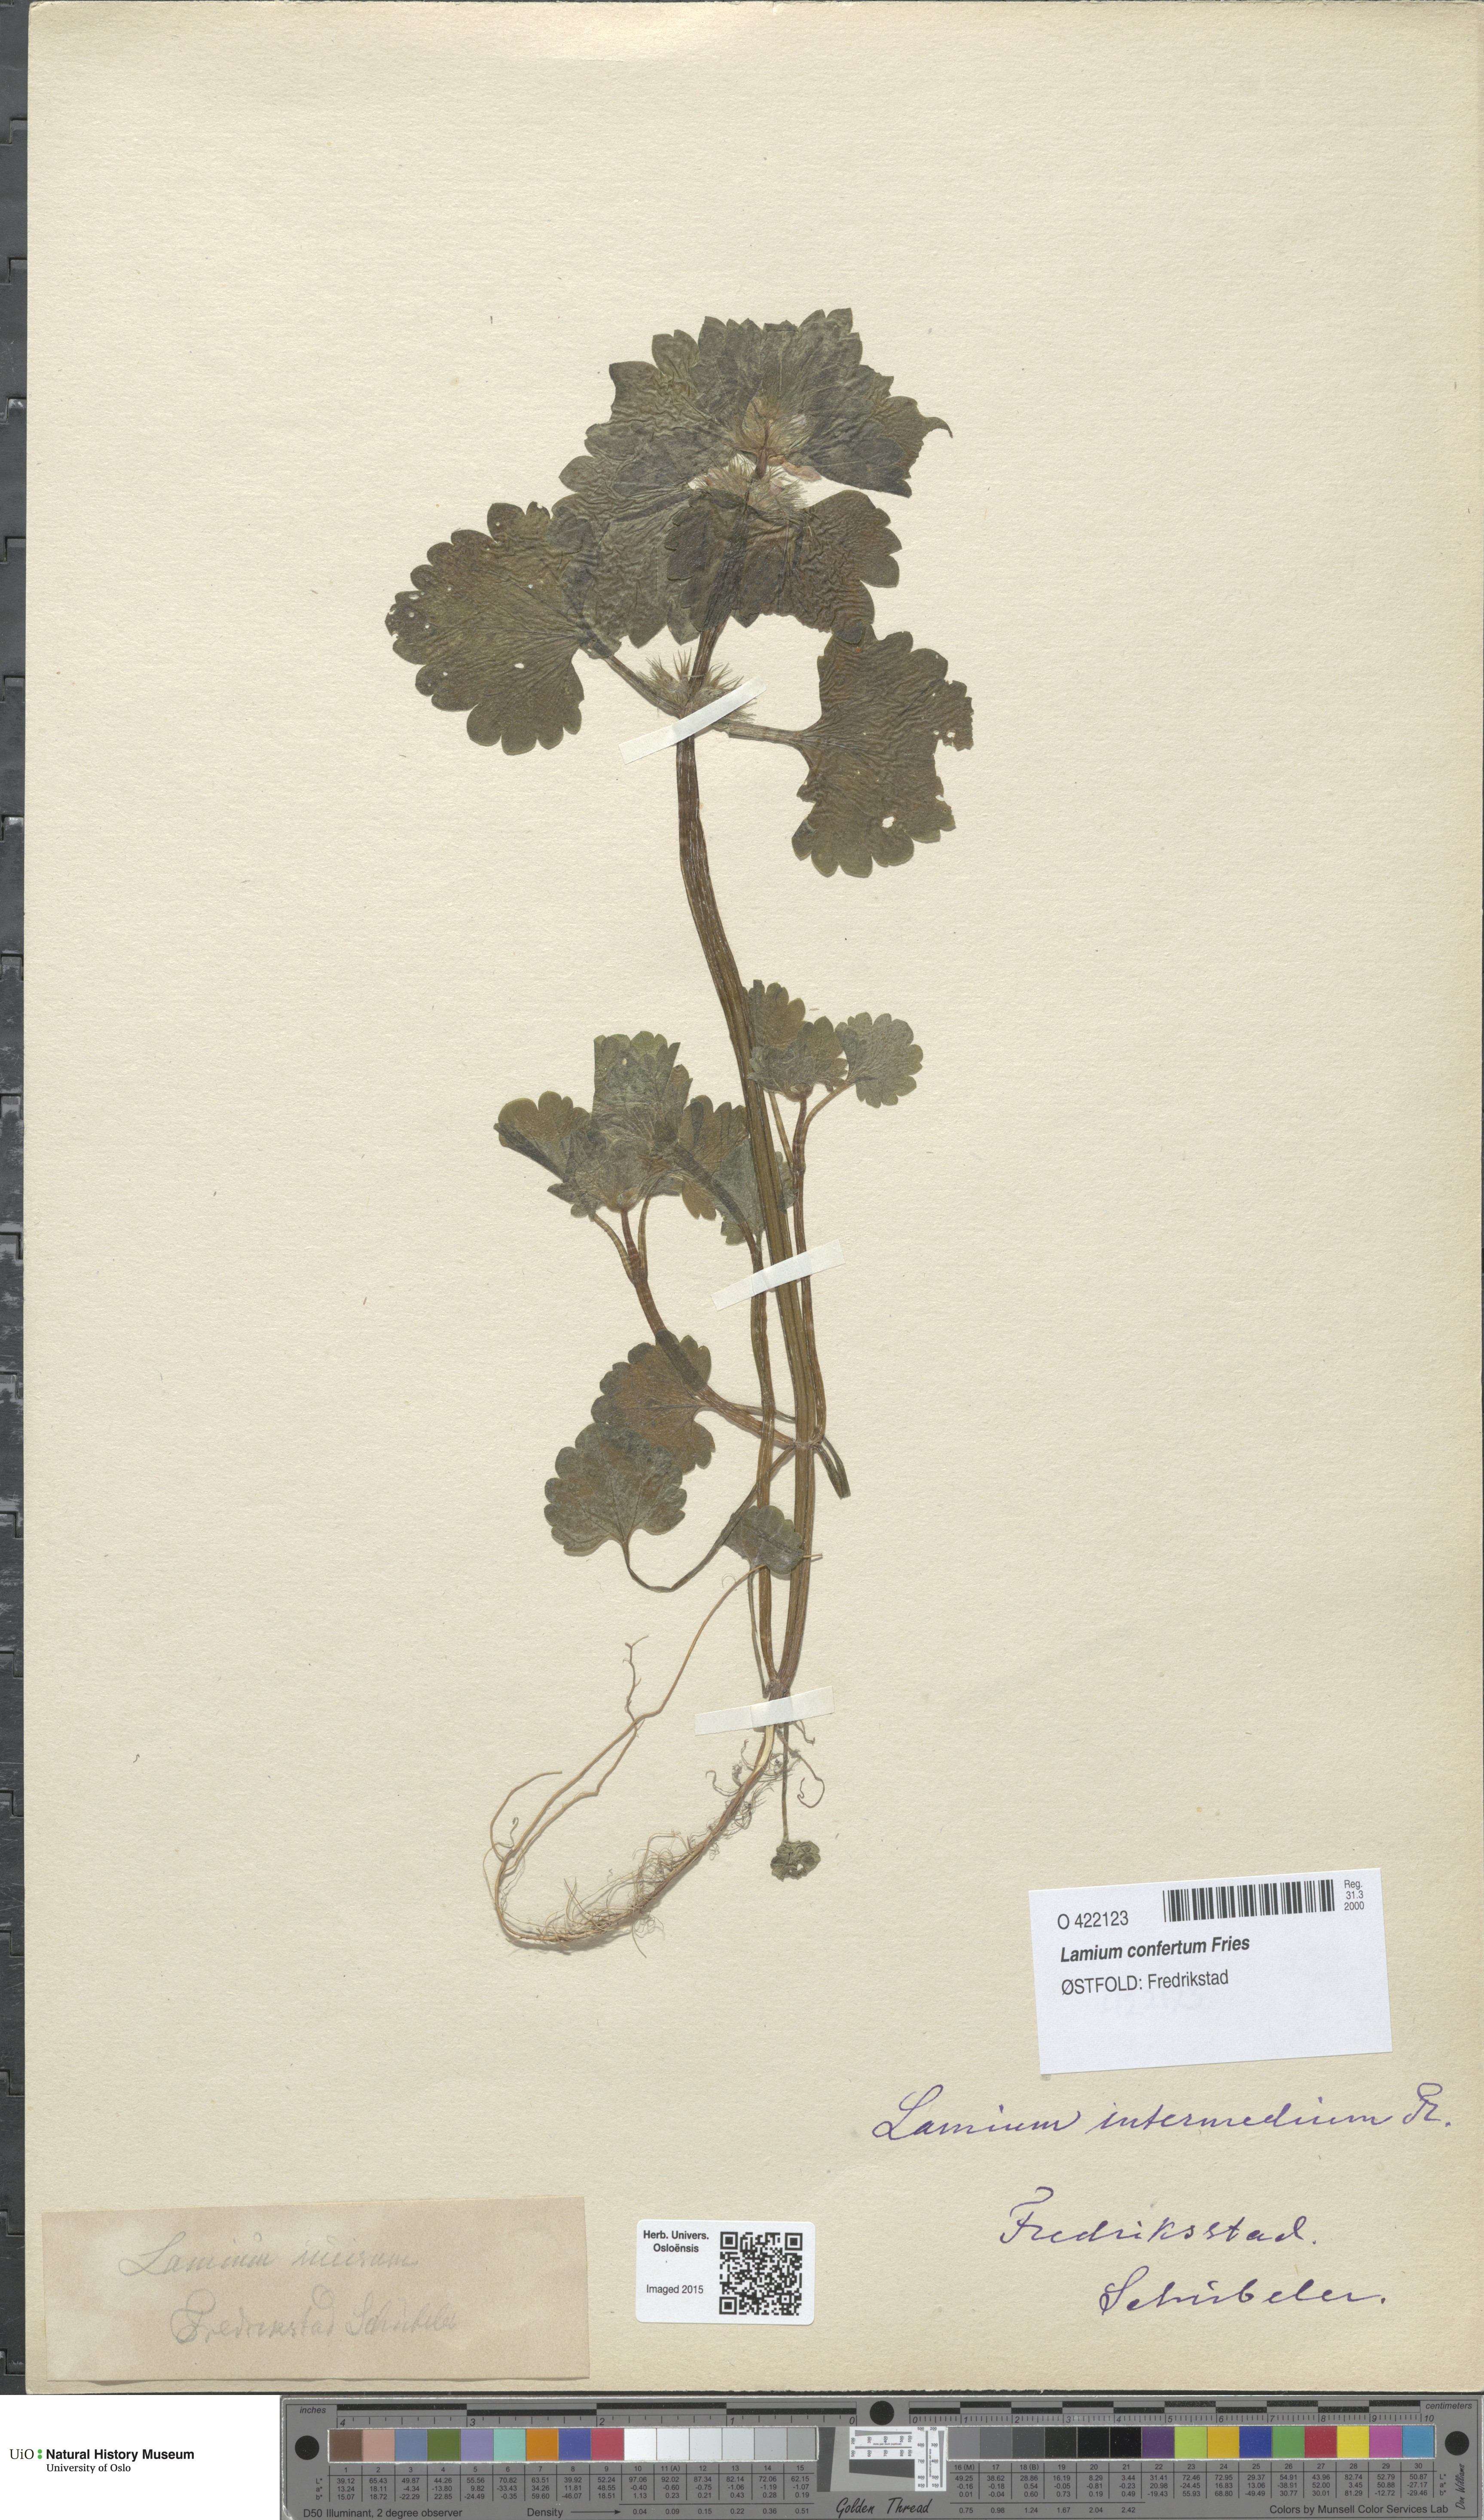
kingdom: Plantae
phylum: Tracheophyta
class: Magnoliopsida
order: Lamiales
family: Lamiaceae
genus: Lamium
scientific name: Lamium confertum
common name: Northern dead-nettle
